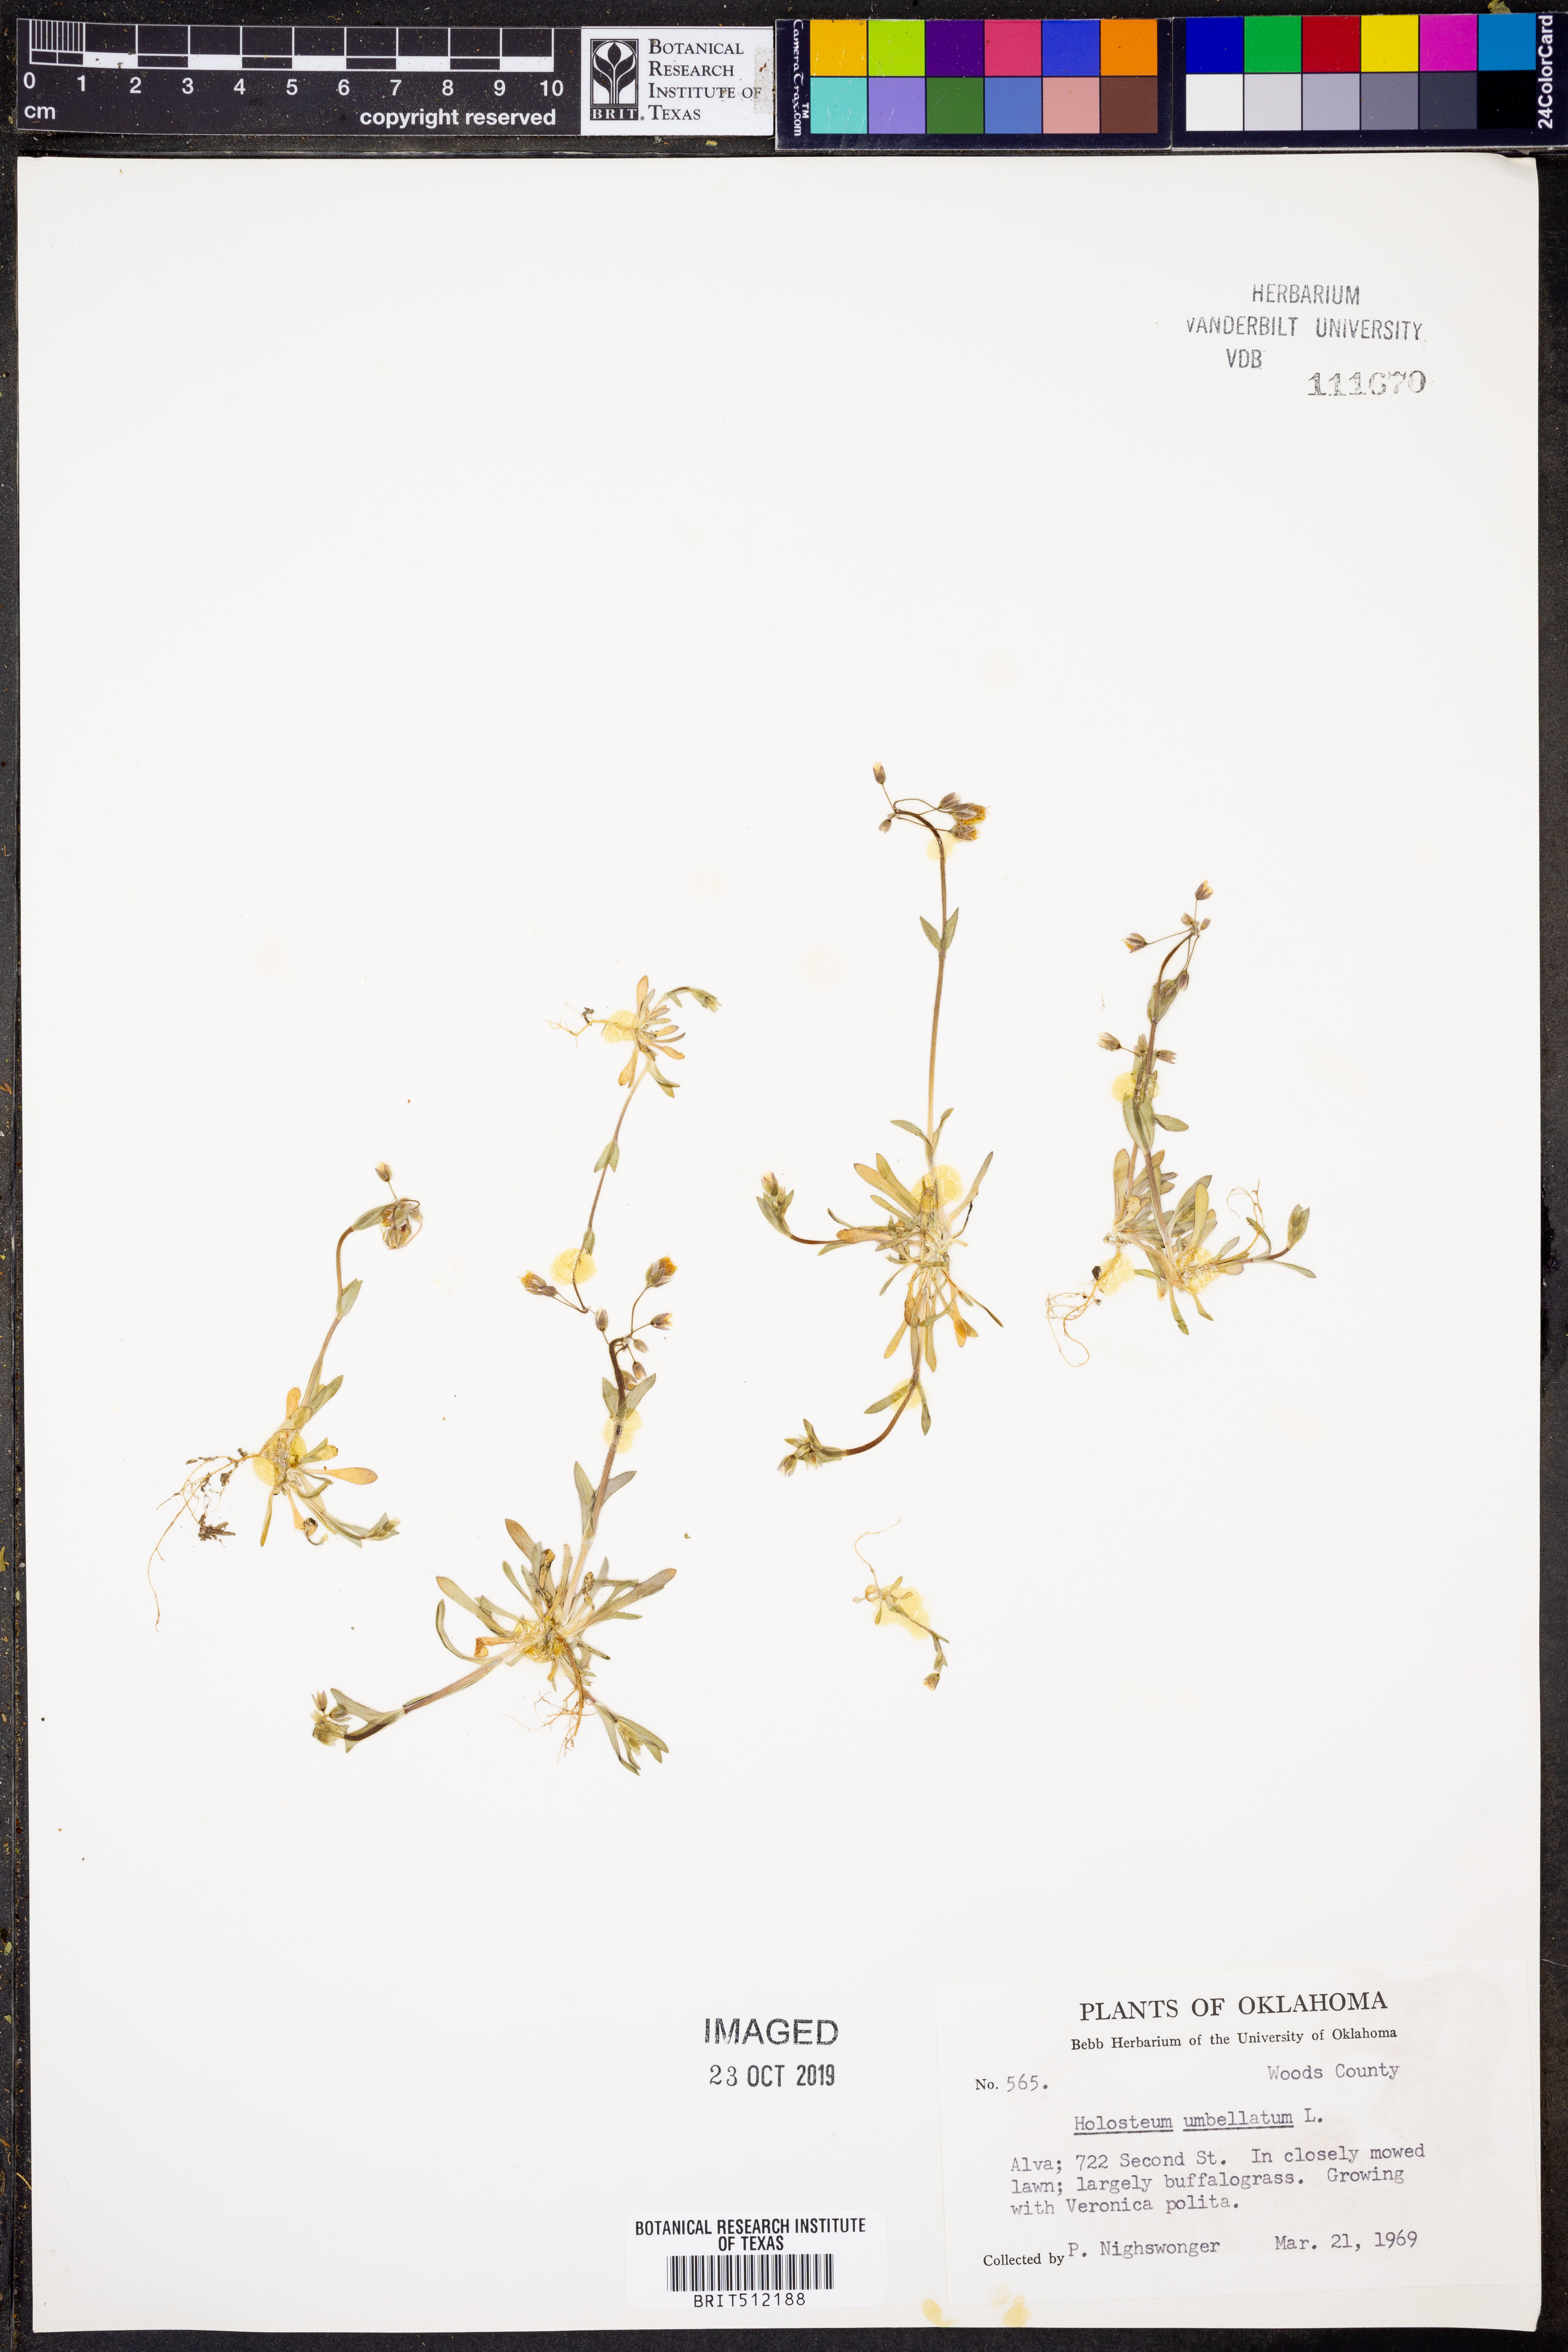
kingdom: Plantae
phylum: Tracheophyta
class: Magnoliopsida
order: Caryophyllales
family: Caryophyllaceae
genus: Holosteum
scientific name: Holosteum umbellatum
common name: Jagged chickweed
